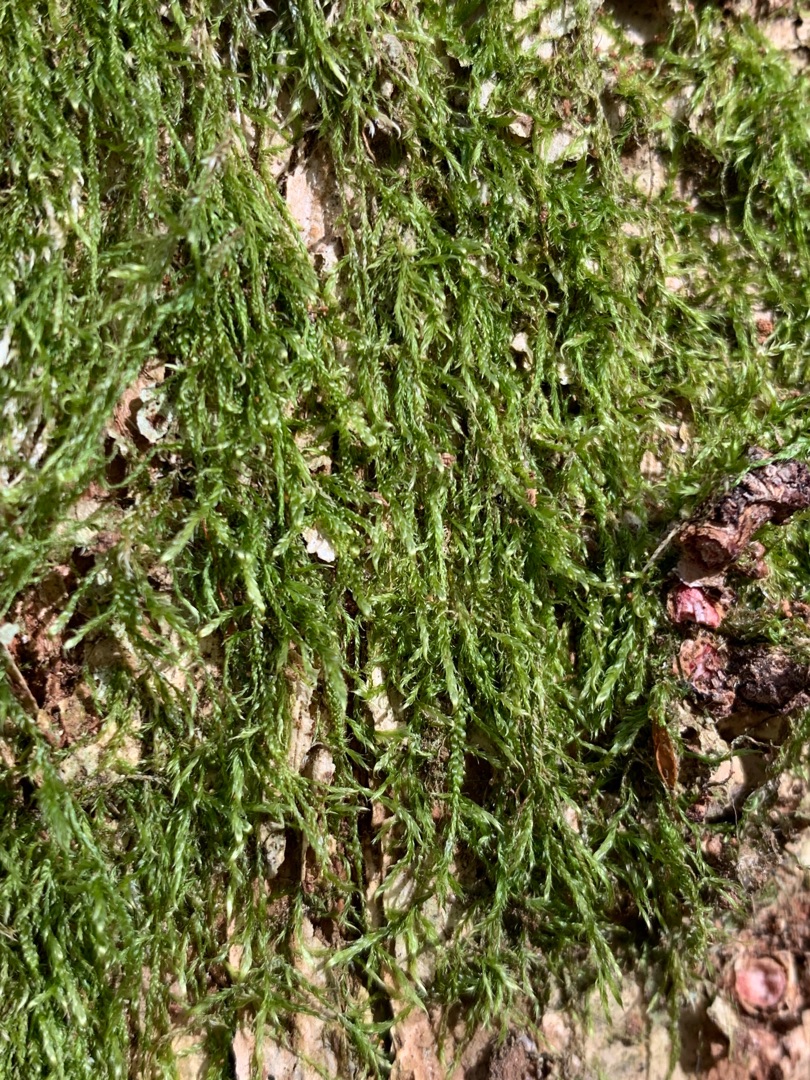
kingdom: Plantae
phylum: Bryophyta
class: Bryopsida
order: Hypnales
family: Hypnaceae
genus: Hypnum
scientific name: Hypnum
